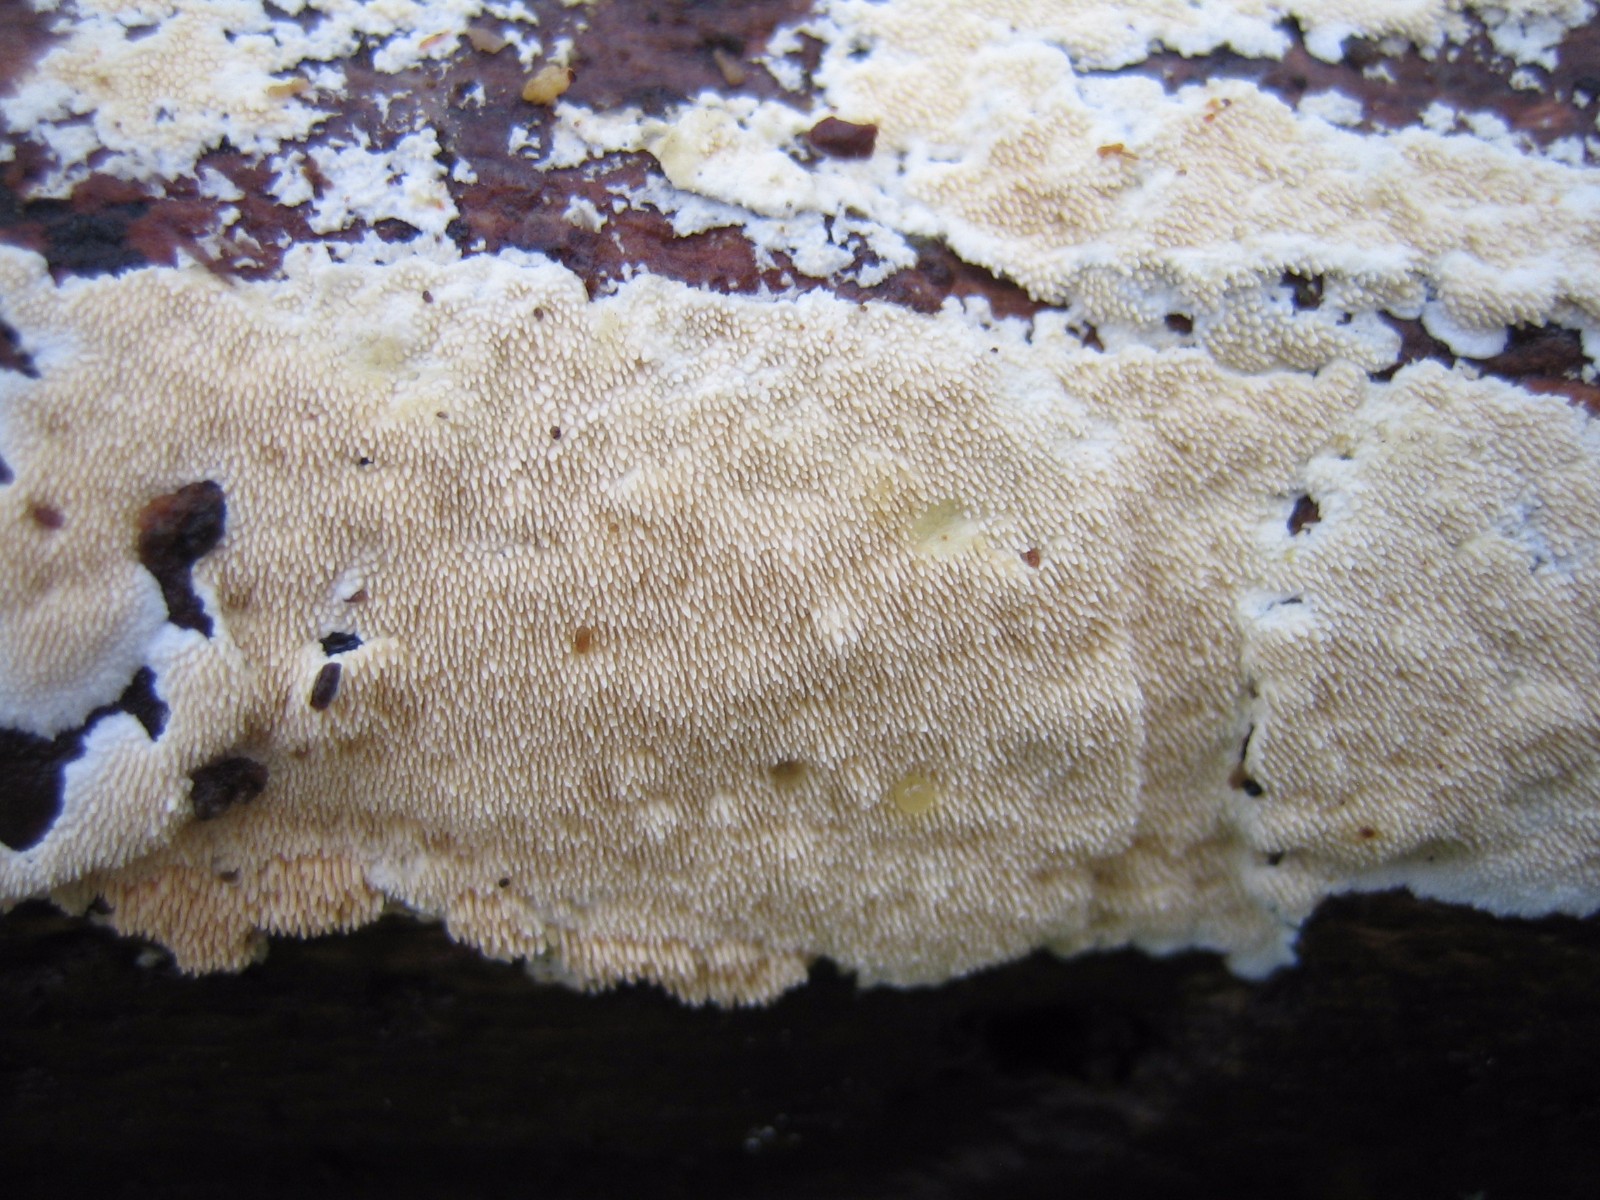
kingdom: Fungi
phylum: Basidiomycota
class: Agaricomycetes
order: Polyporales
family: Steccherinaceae
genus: Steccherinum
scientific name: Steccherinum ochraceum
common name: almindelig skønpig
